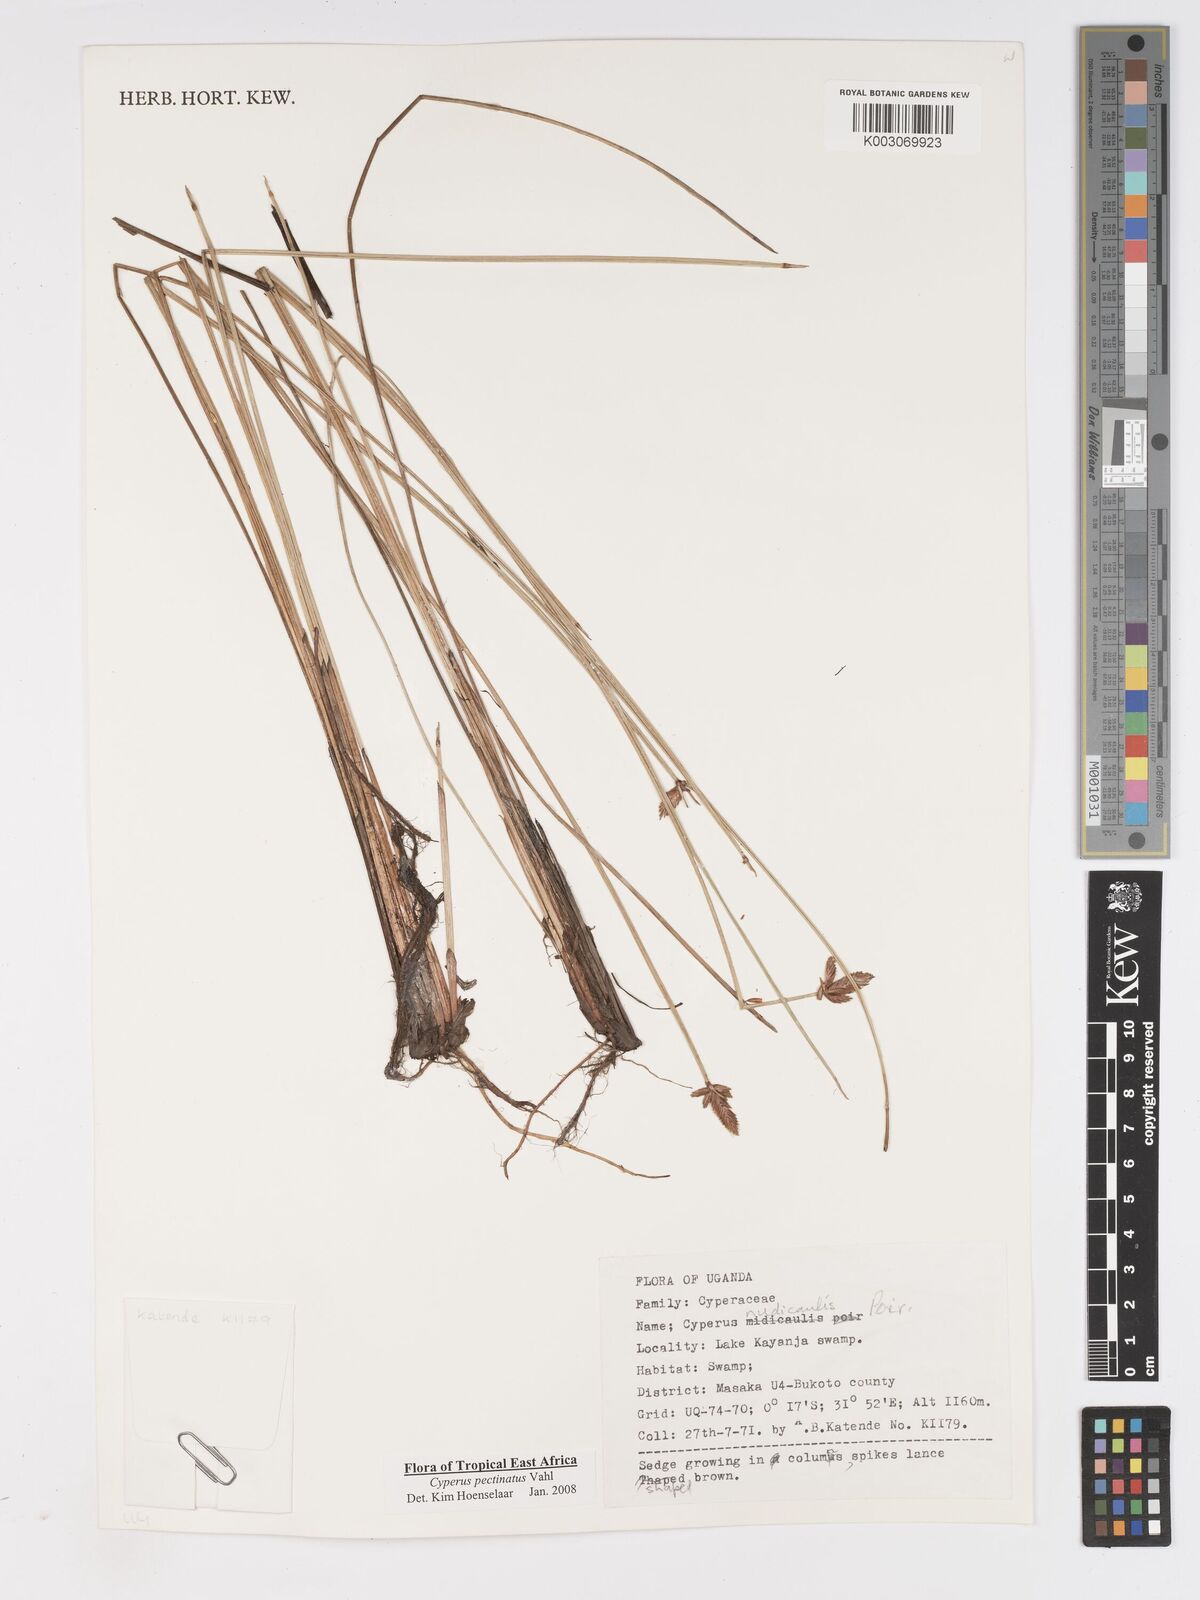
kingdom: Plantae
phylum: Tracheophyta
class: Liliopsida
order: Poales
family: Cyperaceae
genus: Cyperus
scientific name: Cyperus pectinatus
